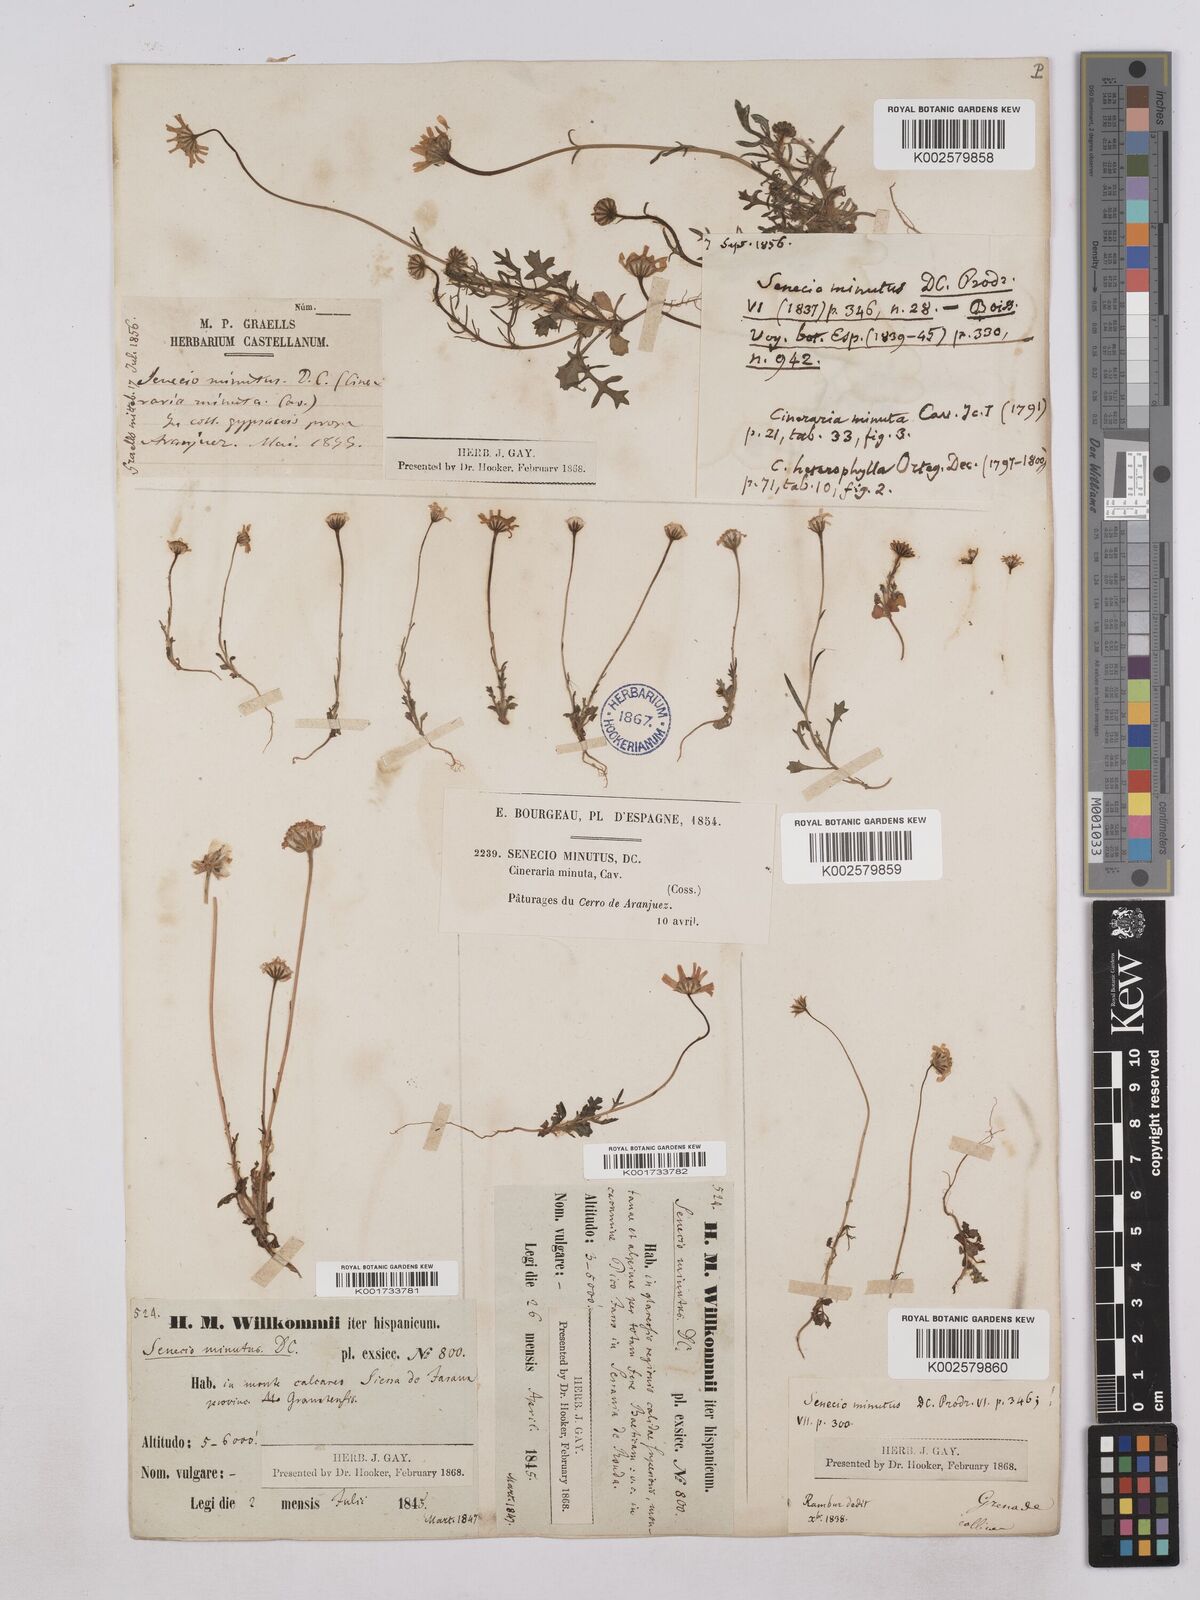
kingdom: Plantae
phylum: Tracheophyta
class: Magnoliopsida
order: Asterales
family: Asteraceae
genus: Jacobaea
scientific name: Jacobaea minuta
